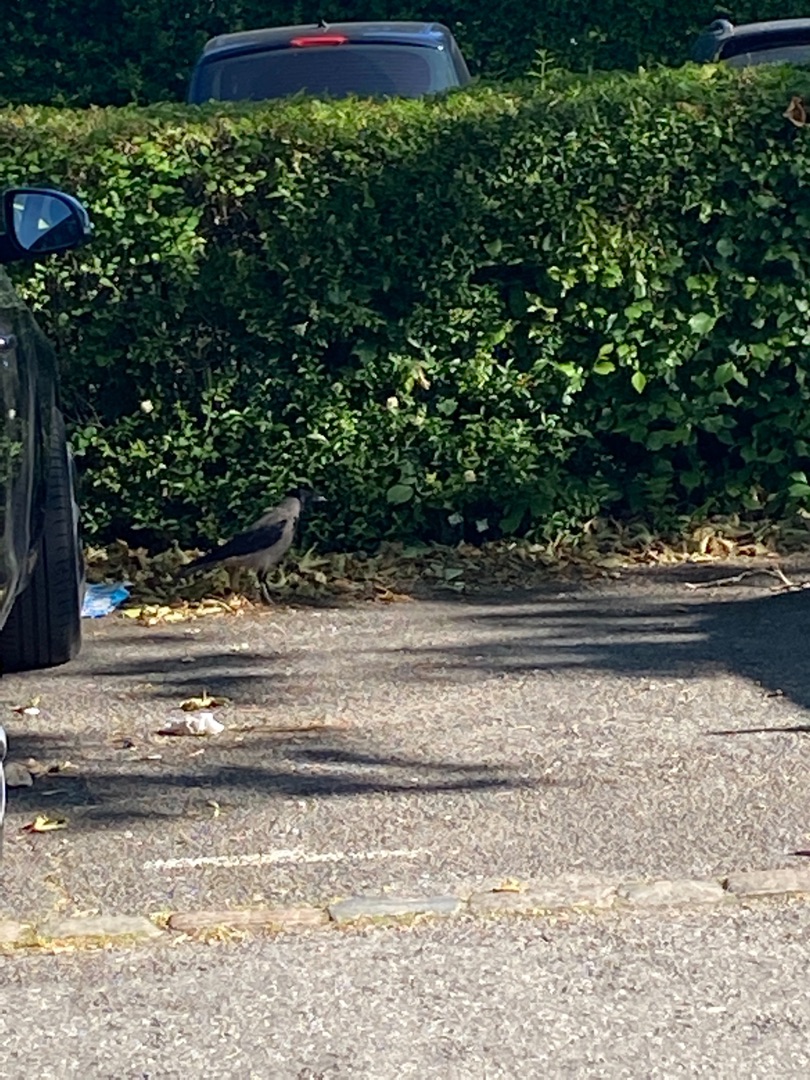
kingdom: Animalia
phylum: Chordata
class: Aves
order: Passeriformes
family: Corvidae
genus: Corvus
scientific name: Corvus cornix
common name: Gråkrage
